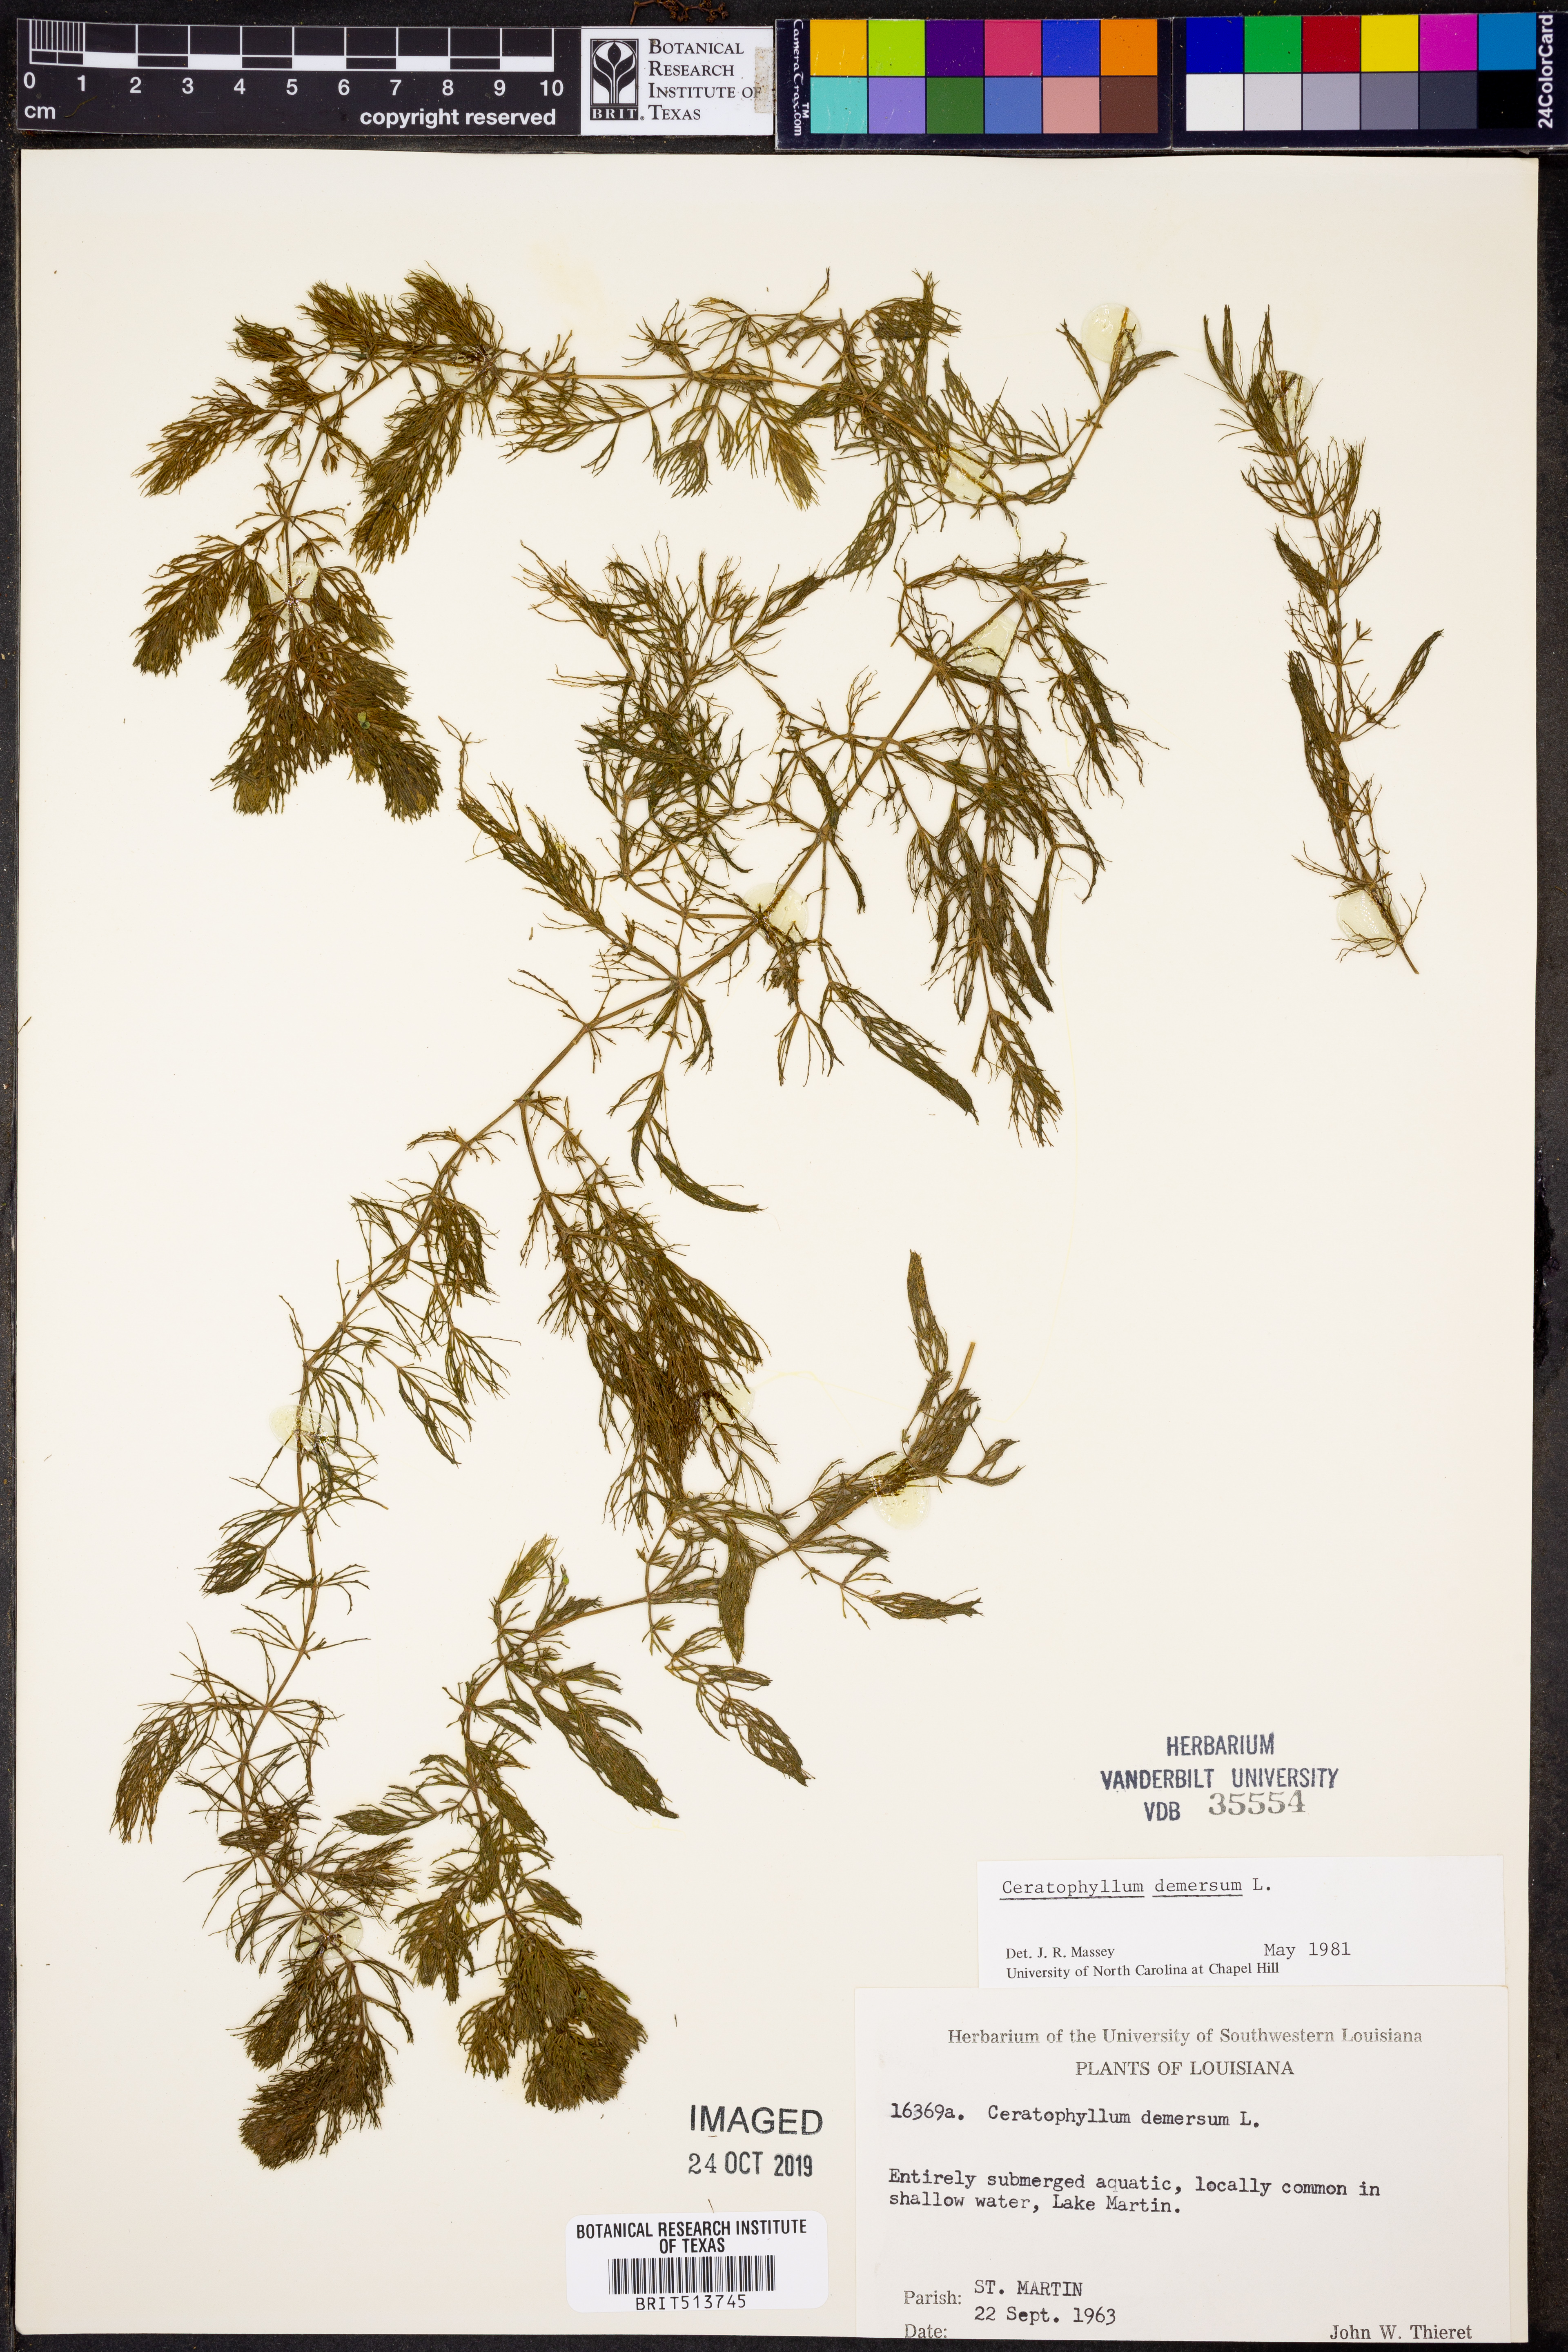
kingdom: Plantae
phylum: Tracheophyta
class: Magnoliopsida
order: Ceratophyllales
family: Ceratophyllaceae
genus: Ceratophyllum
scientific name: Ceratophyllum demersum
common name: Rigid hornwort
